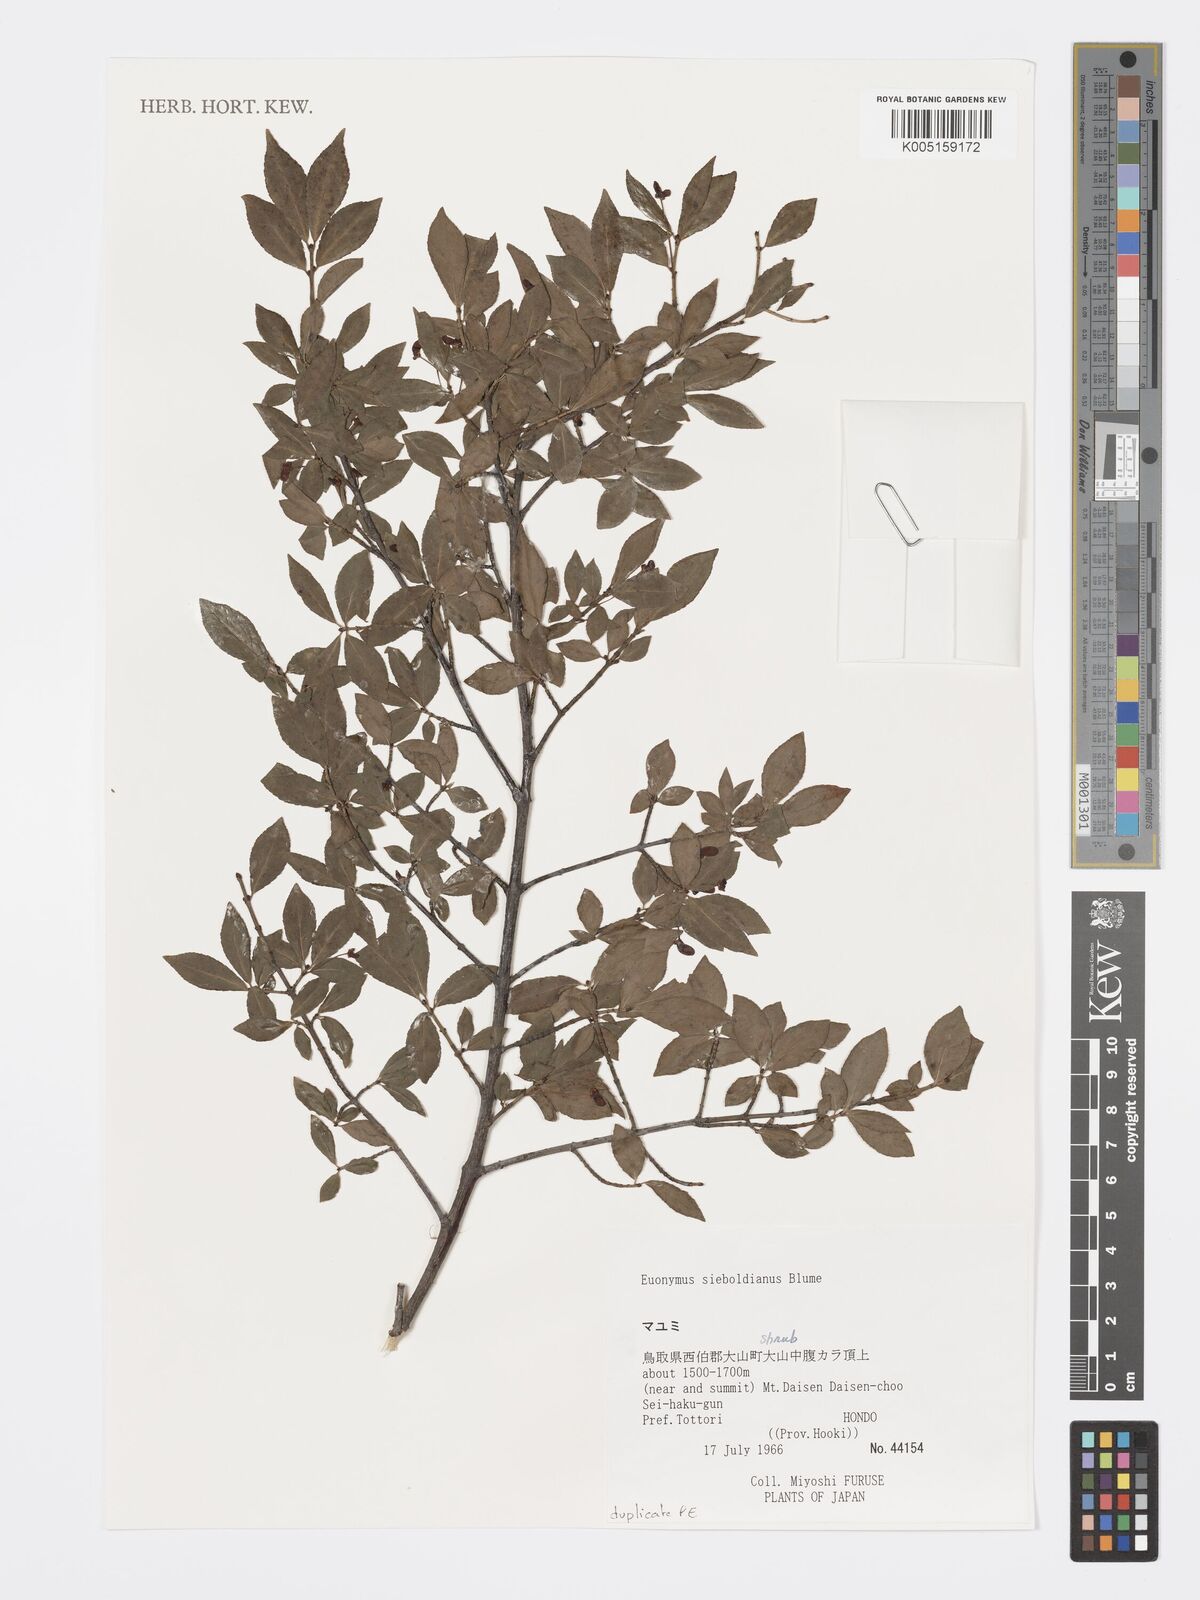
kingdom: Plantae
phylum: Tracheophyta
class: Magnoliopsida
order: Celastrales
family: Celastraceae
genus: Euonymus
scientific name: Euonymus hamiltonianus
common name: Hamilton's spindletree
